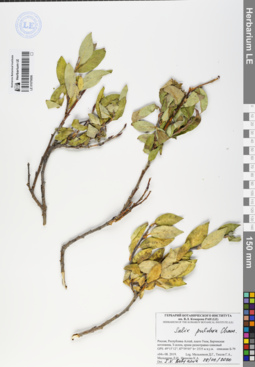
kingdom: Plantae
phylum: Tracheophyta
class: Magnoliopsida
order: Malpighiales
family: Salicaceae
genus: Salix
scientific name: Salix pulchra
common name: Diamond-leaved willow
